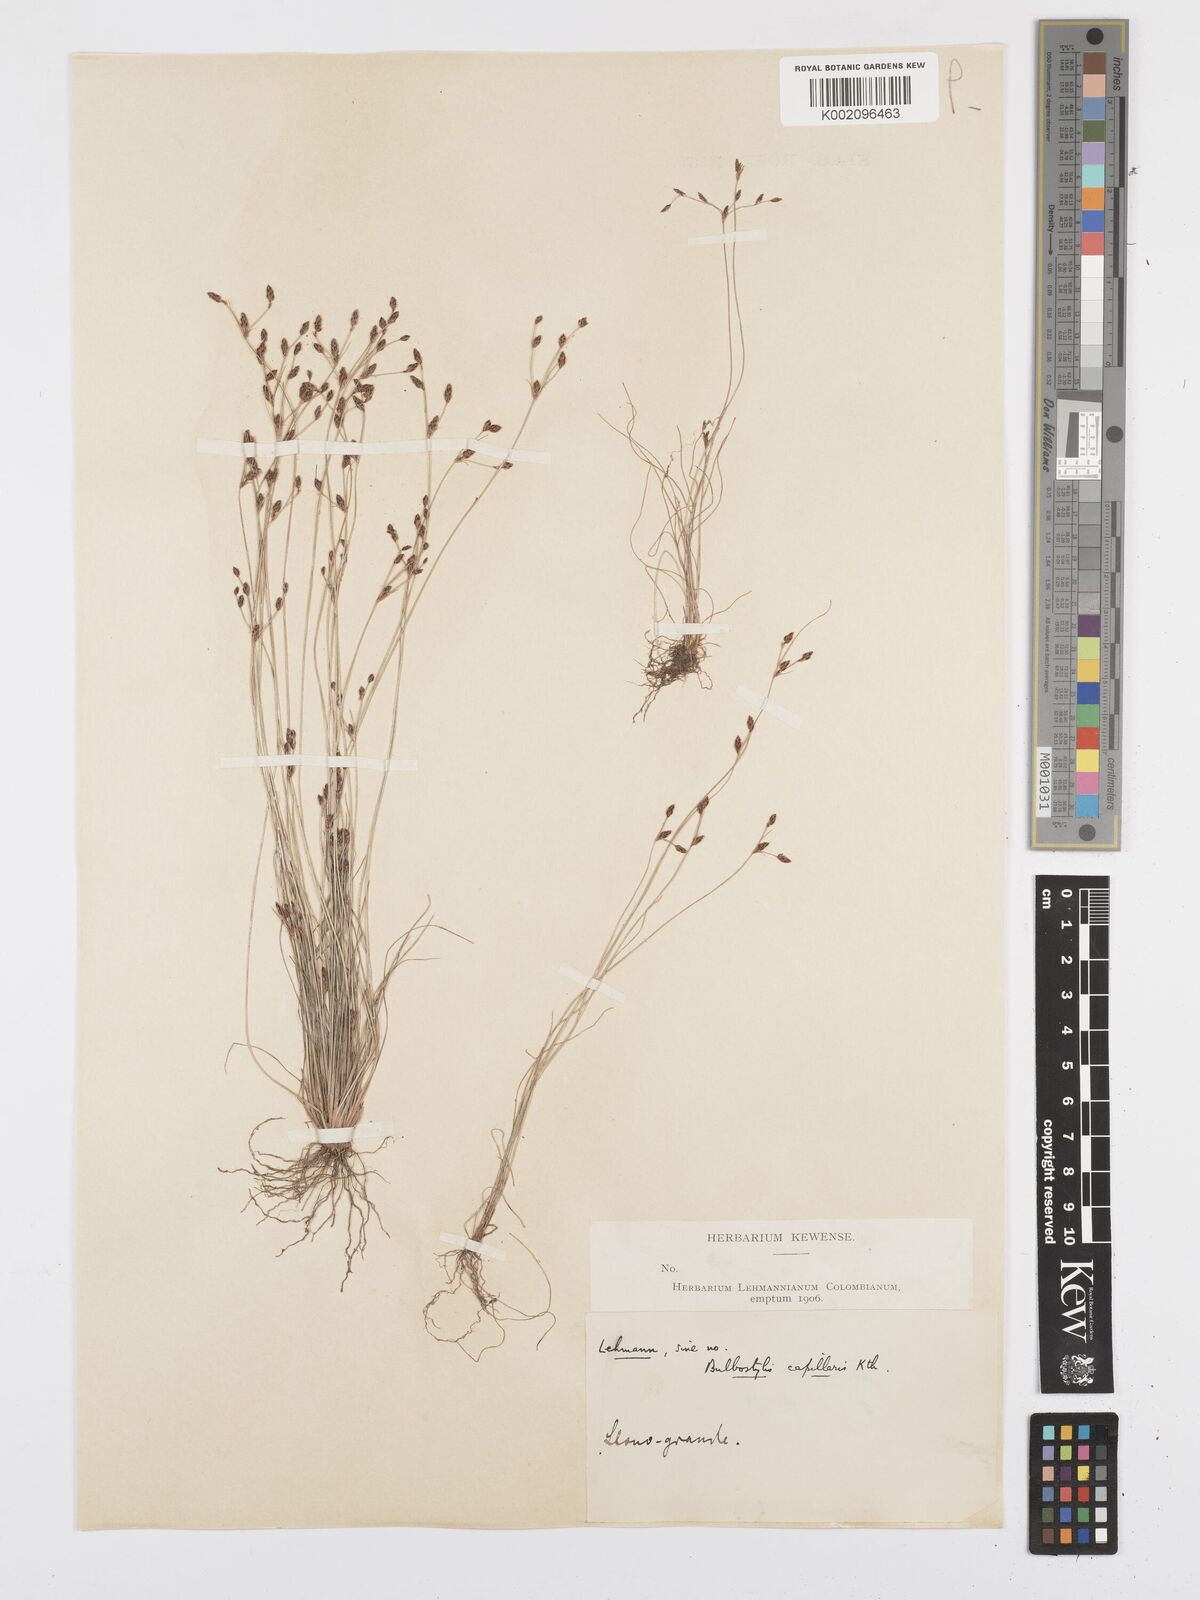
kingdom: Plantae
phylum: Tracheophyta
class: Liliopsida
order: Poales
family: Cyperaceae
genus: Bulbostylis
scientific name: Bulbostylis tenuifolia
